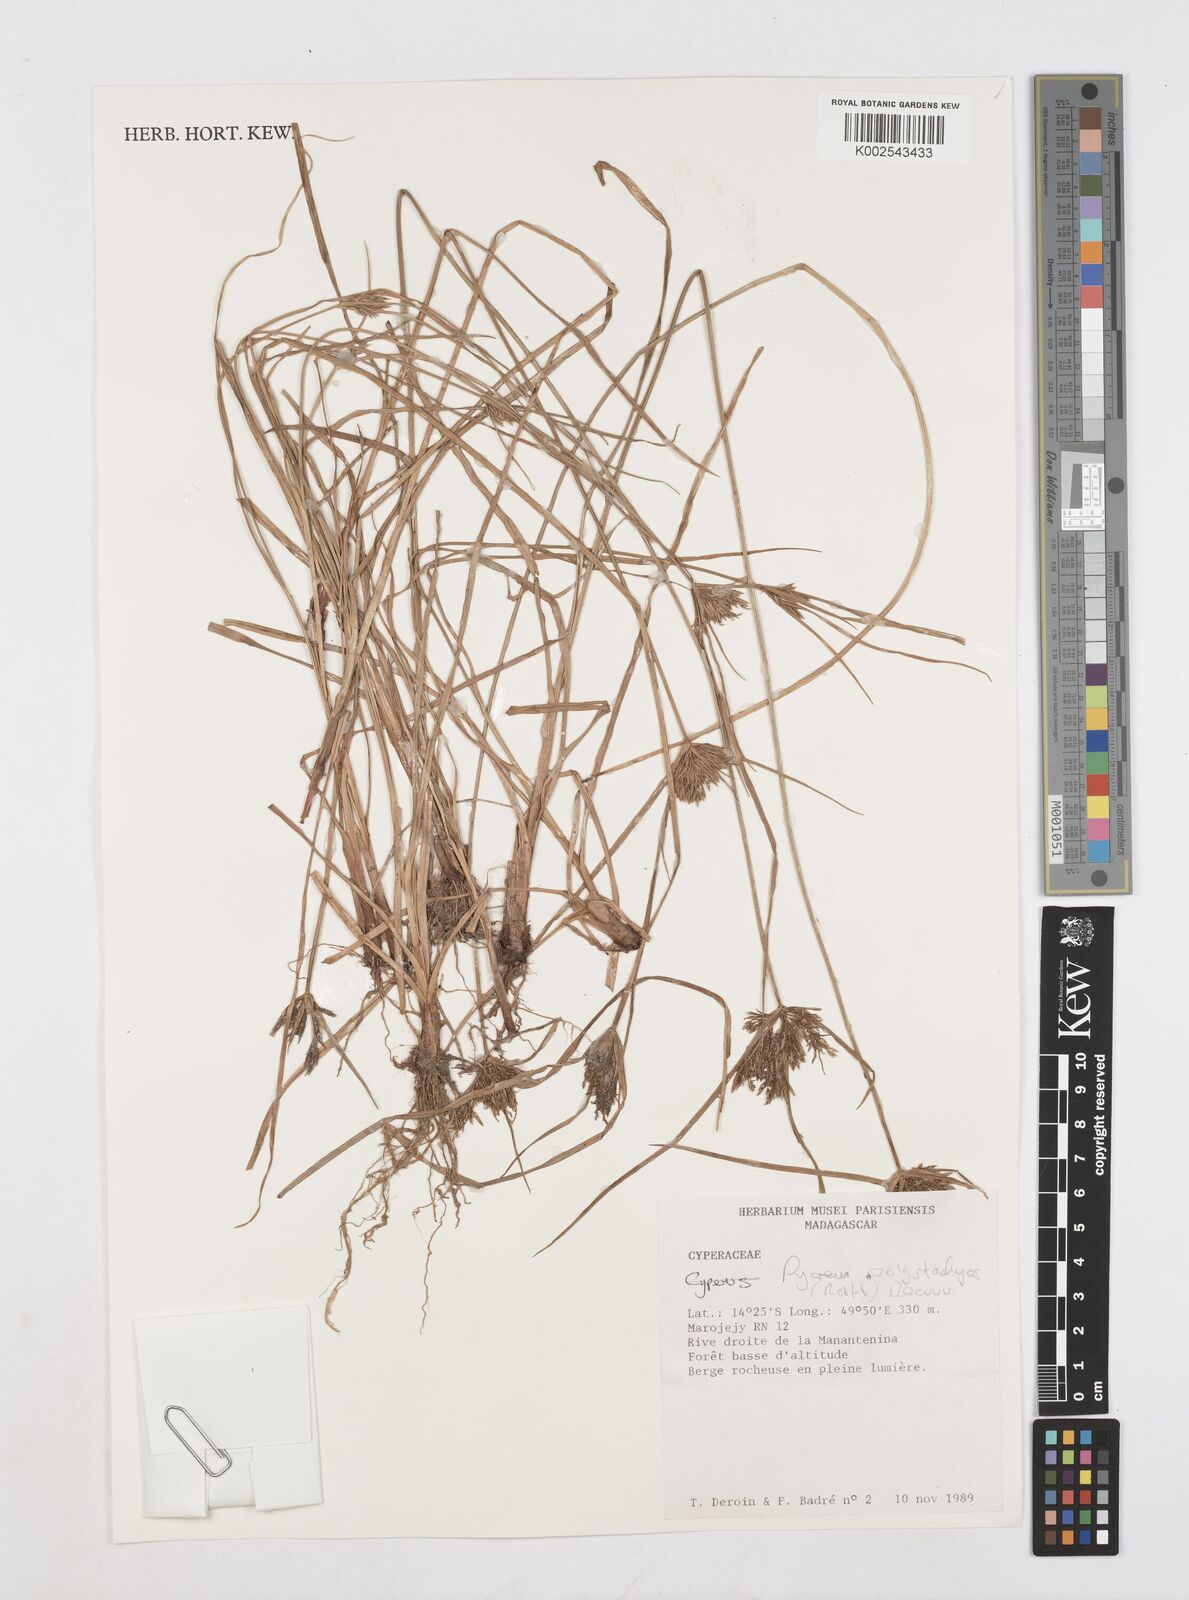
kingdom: Plantae
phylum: Tracheophyta
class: Liliopsida
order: Poales
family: Cyperaceae
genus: Cyperus
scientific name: Cyperus polystachyos
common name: Bunchy flat sedge
